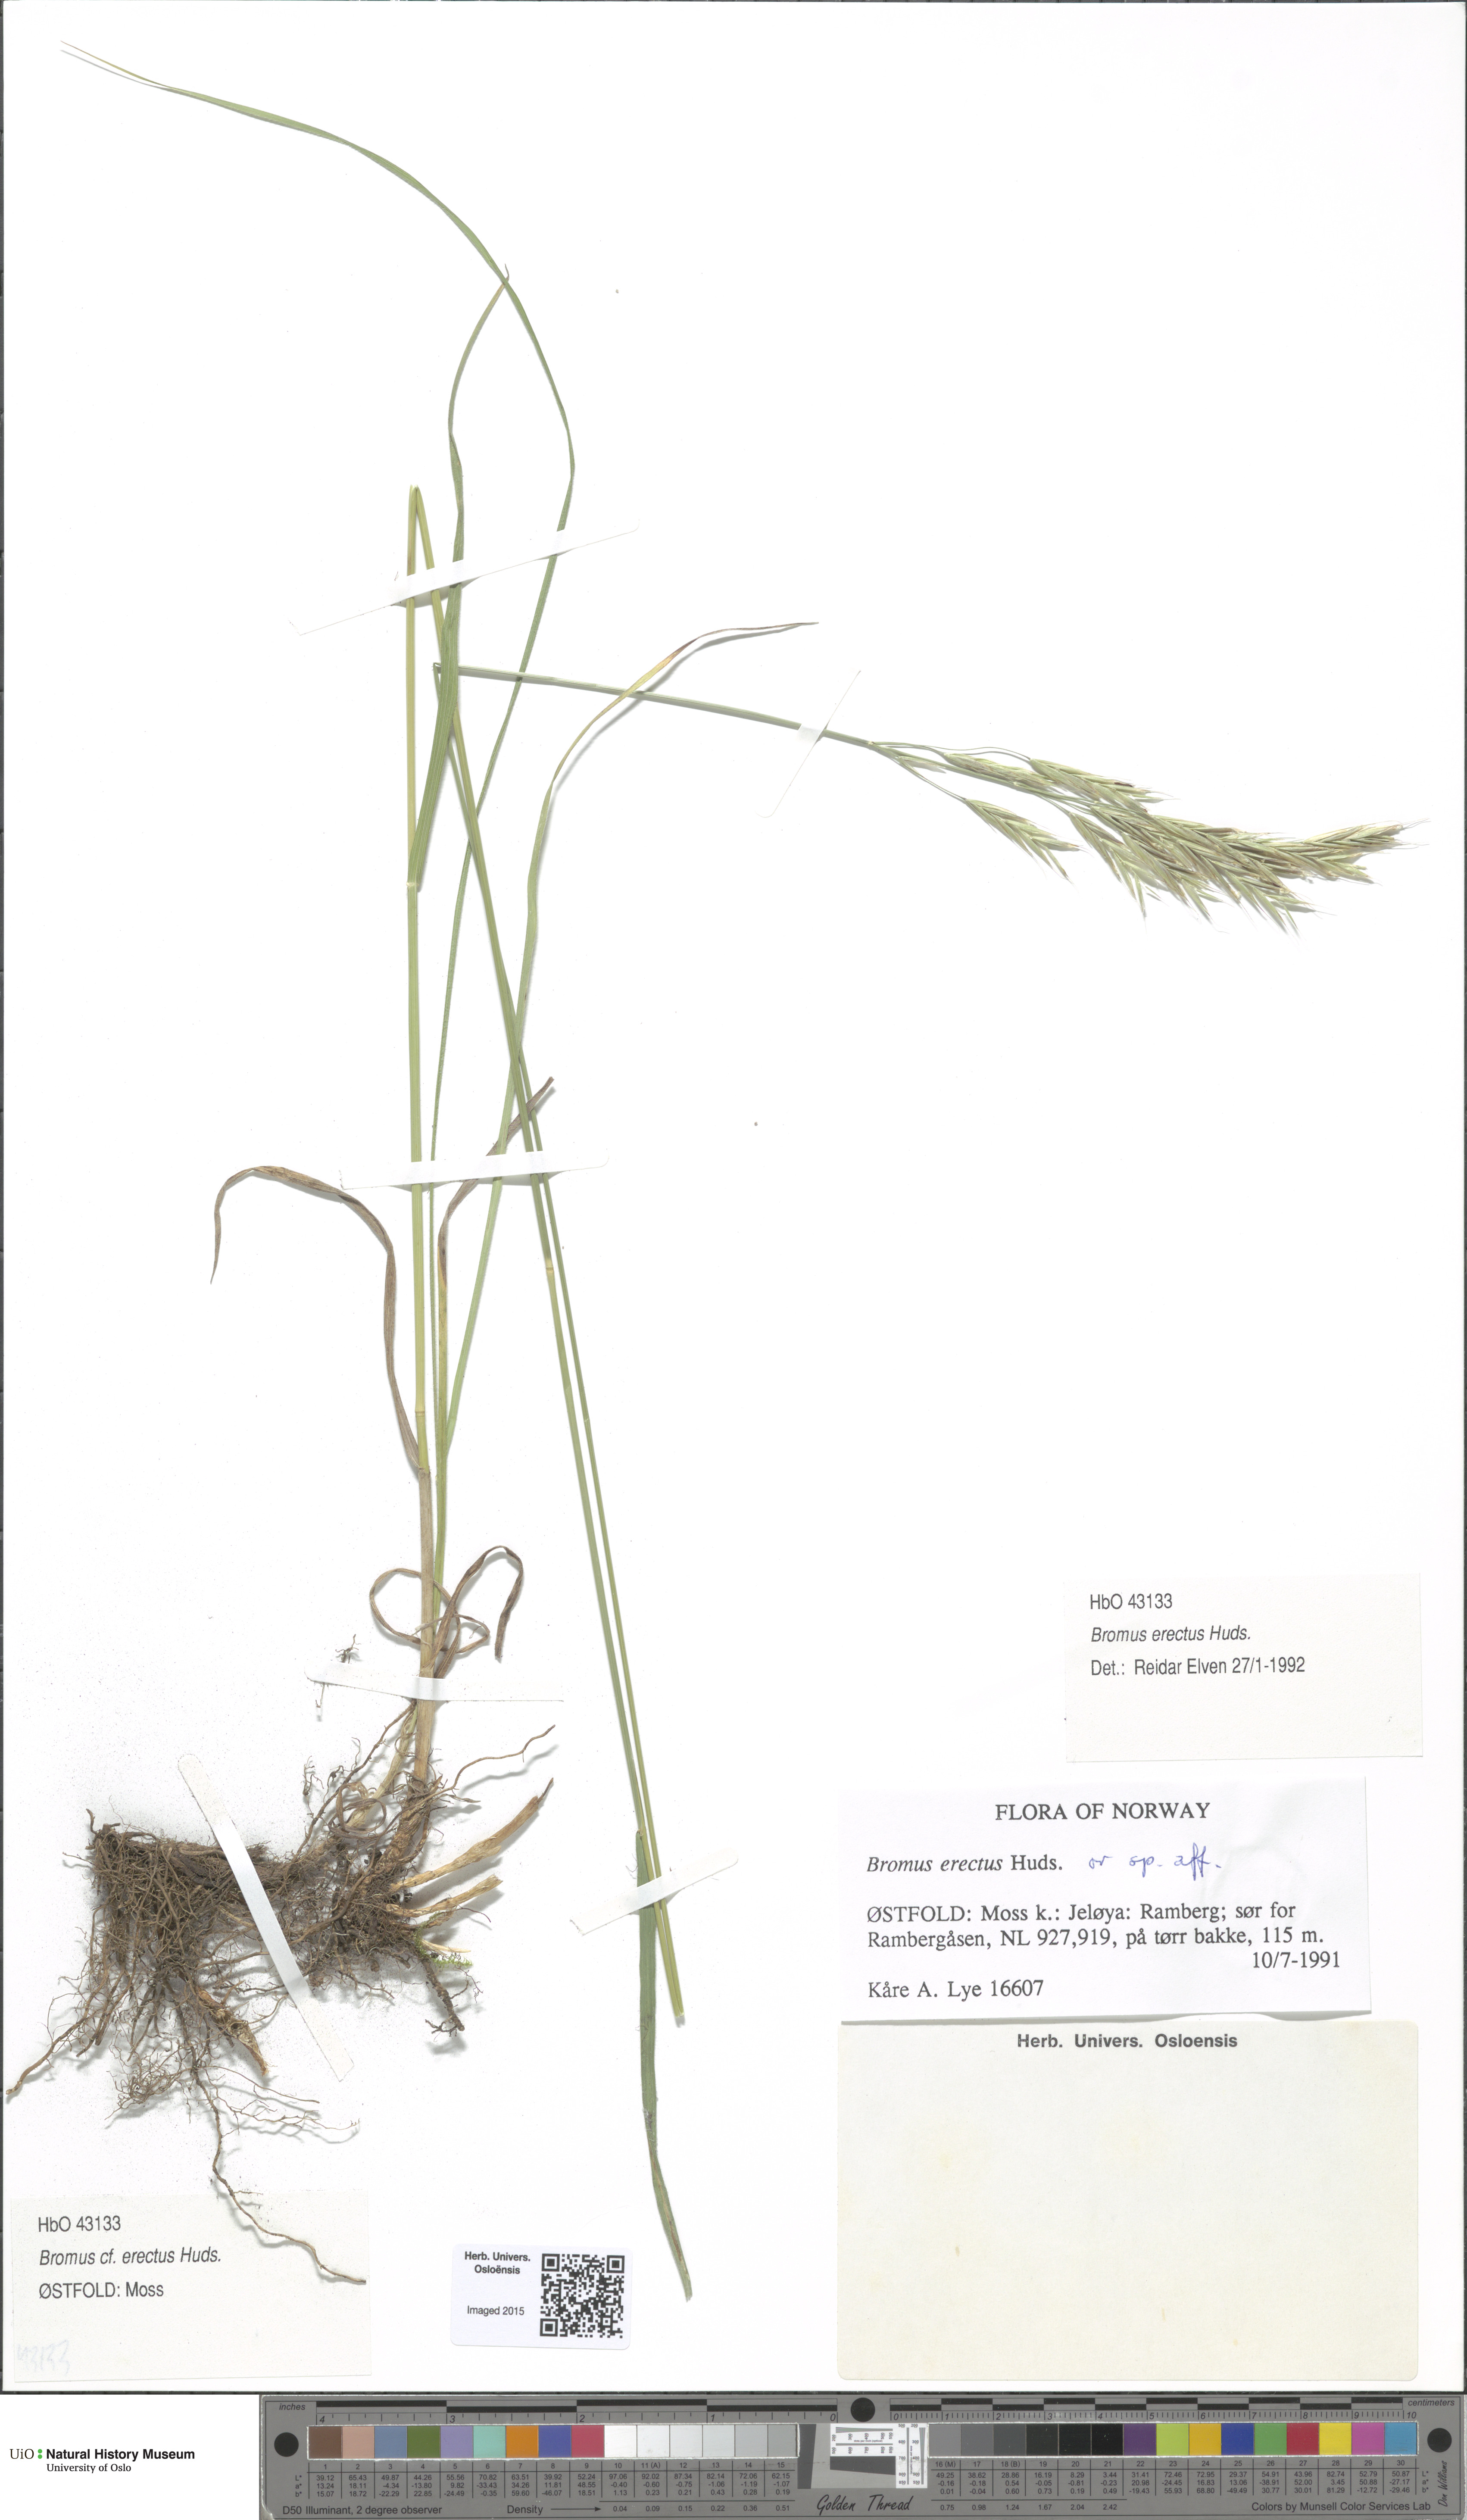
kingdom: Plantae
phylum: Tracheophyta
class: Liliopsida
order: Poales
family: Poaceae
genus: Bromus
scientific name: Bromus erectus
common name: Erect brome
